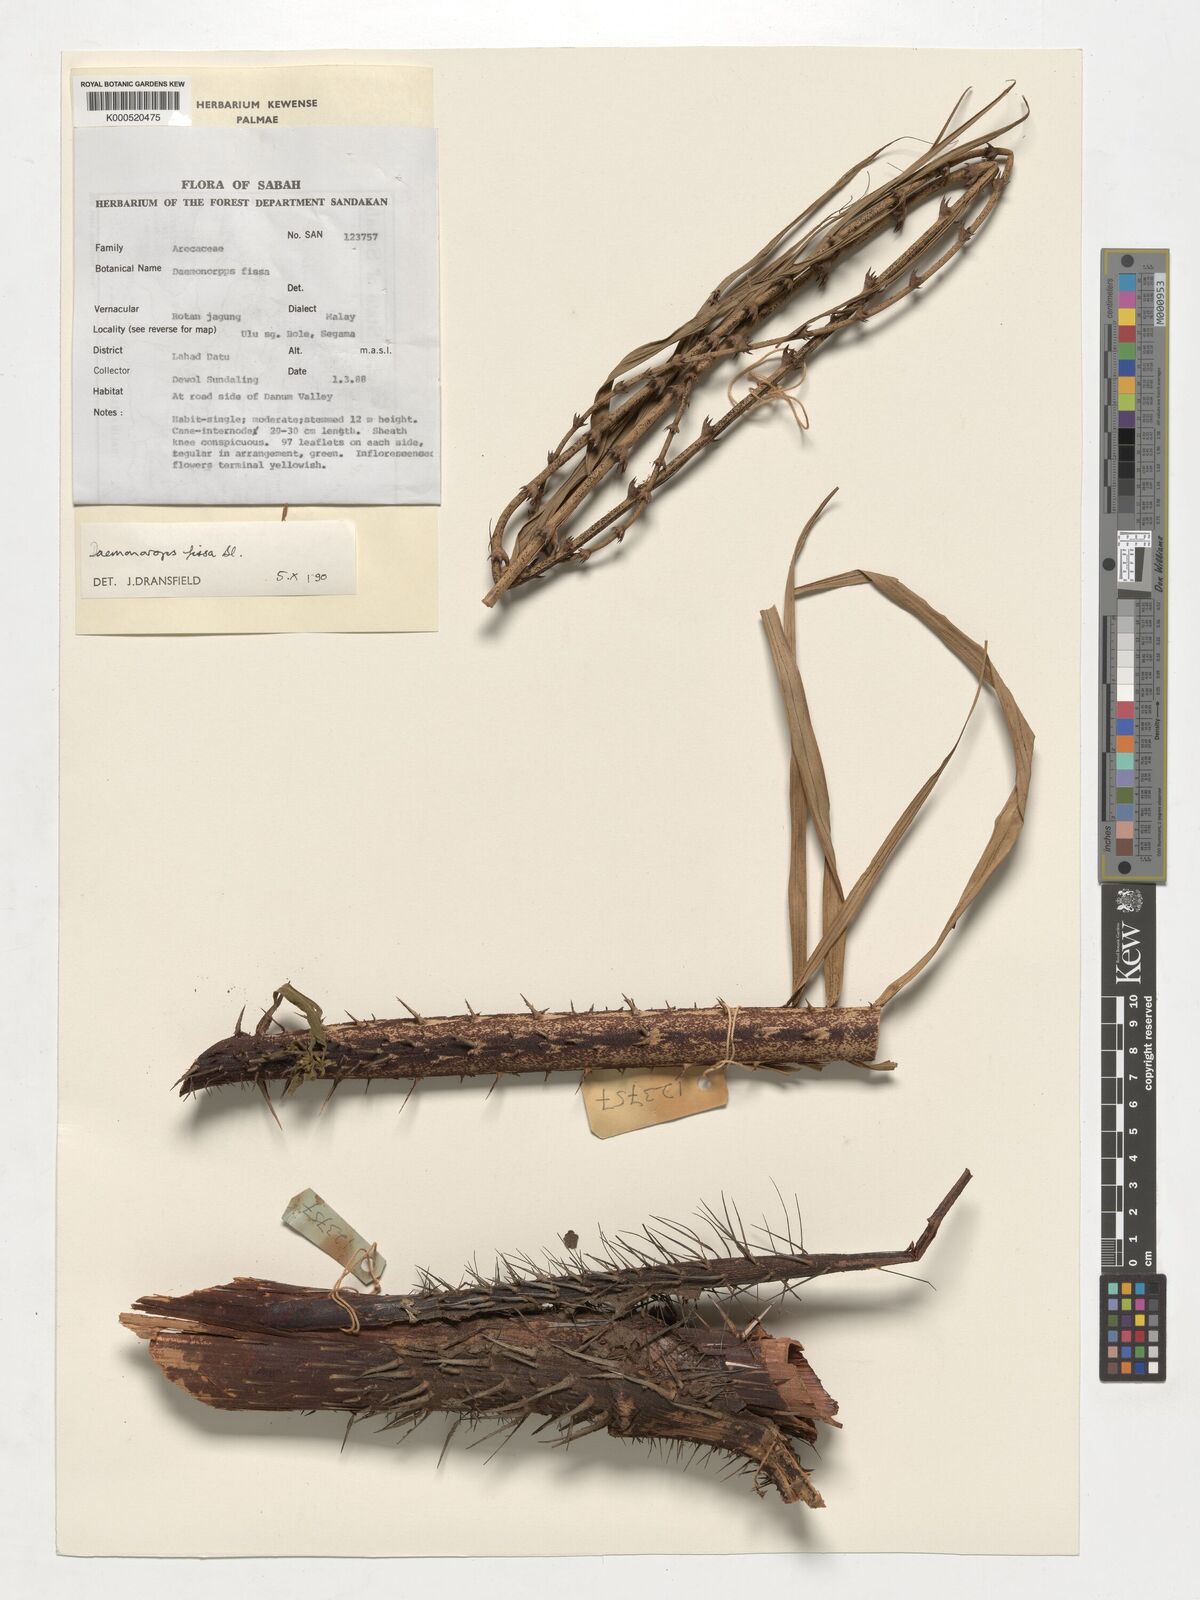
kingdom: Plantae
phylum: Tracheophyta
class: Liliopsida
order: Arecales
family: Arecaceae
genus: Calamus
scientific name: Calamus melanochaetes
